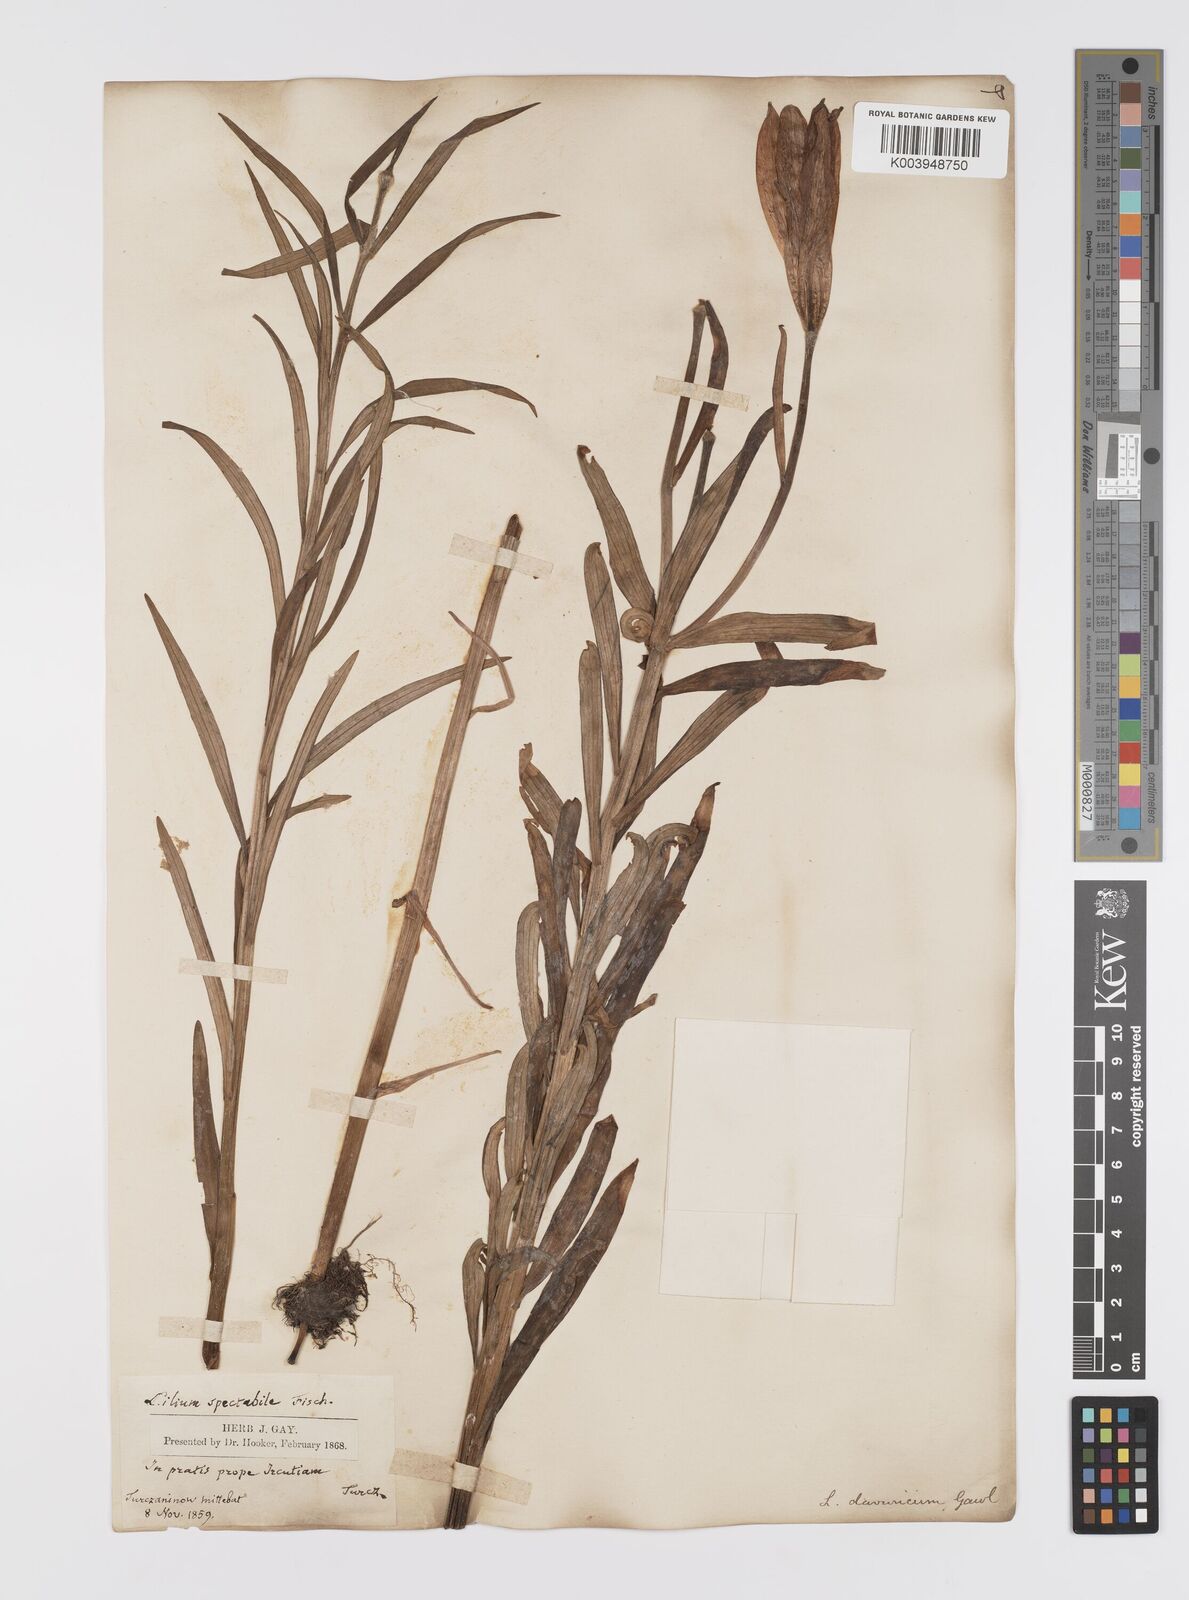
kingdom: Plantae
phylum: Tracheophyta
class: Liliopsida
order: Liliales
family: Liliaceae
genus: Lilium
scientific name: Lilium pensylvanicum
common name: Candlestick lily
